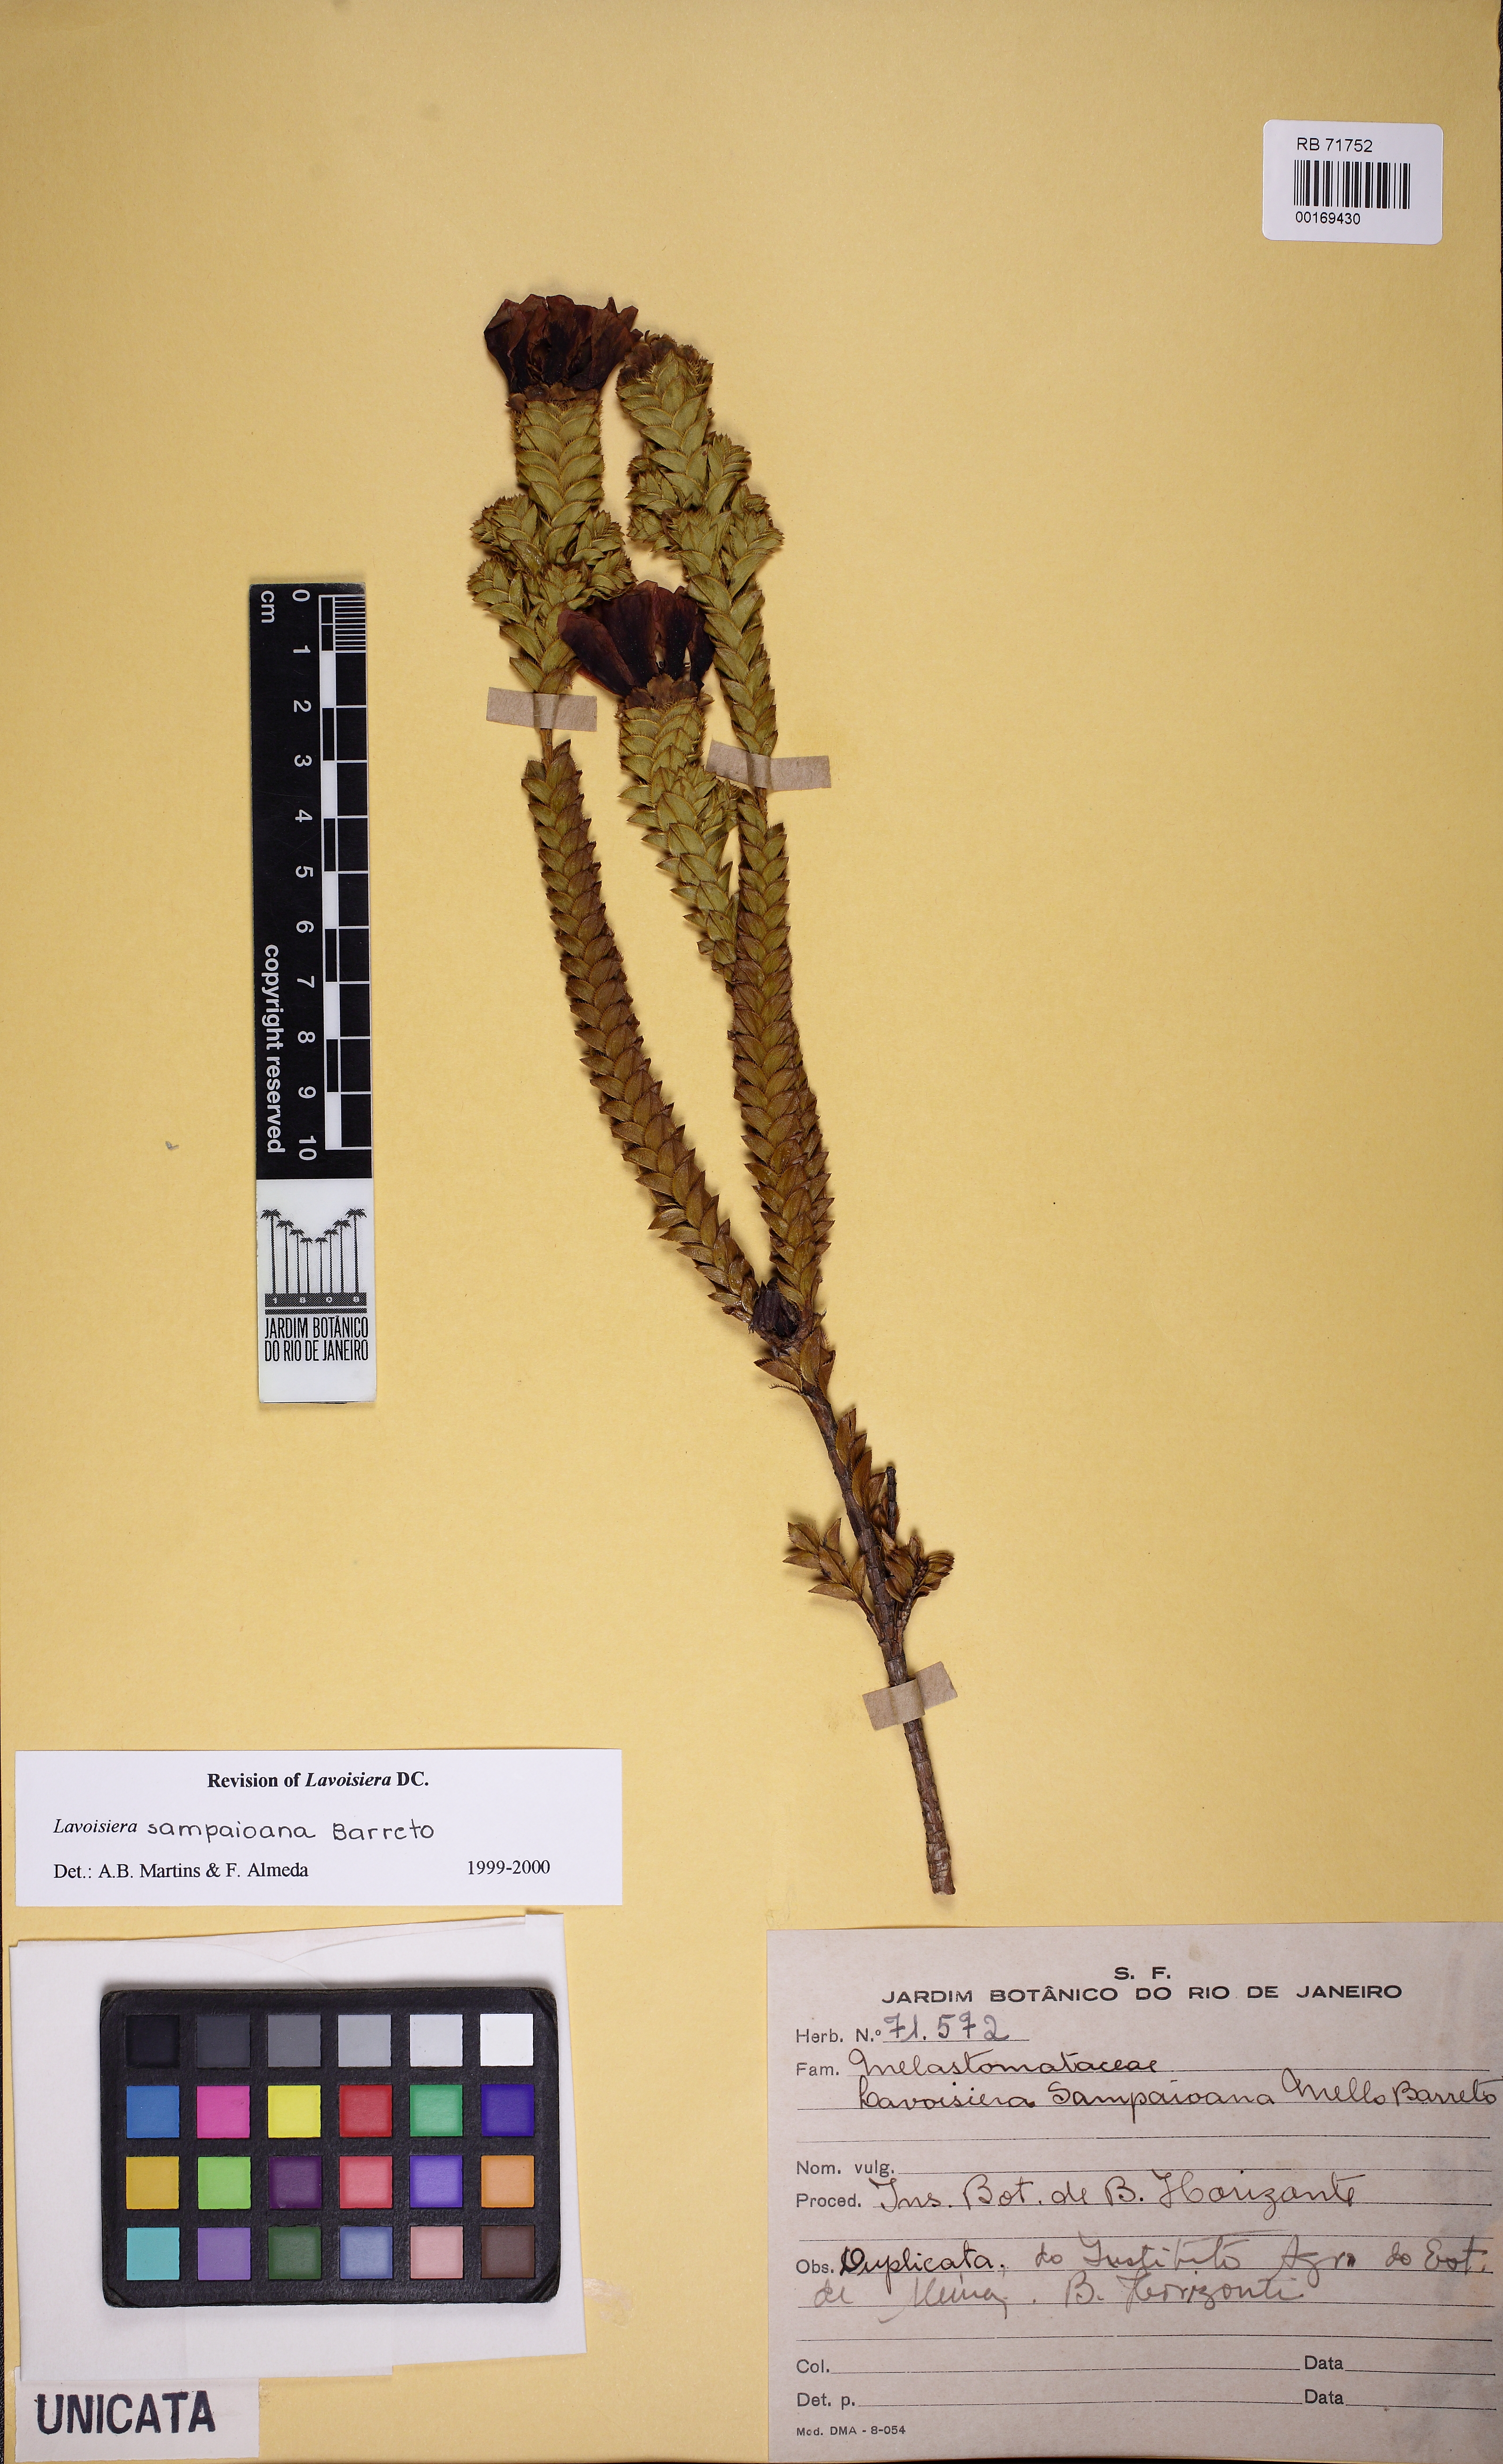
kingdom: Plantae
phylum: Tracheophyta
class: Magnoliopsida
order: Fabales
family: Fabaceae
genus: Bowdichia
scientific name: Bowdichia virgilioides
